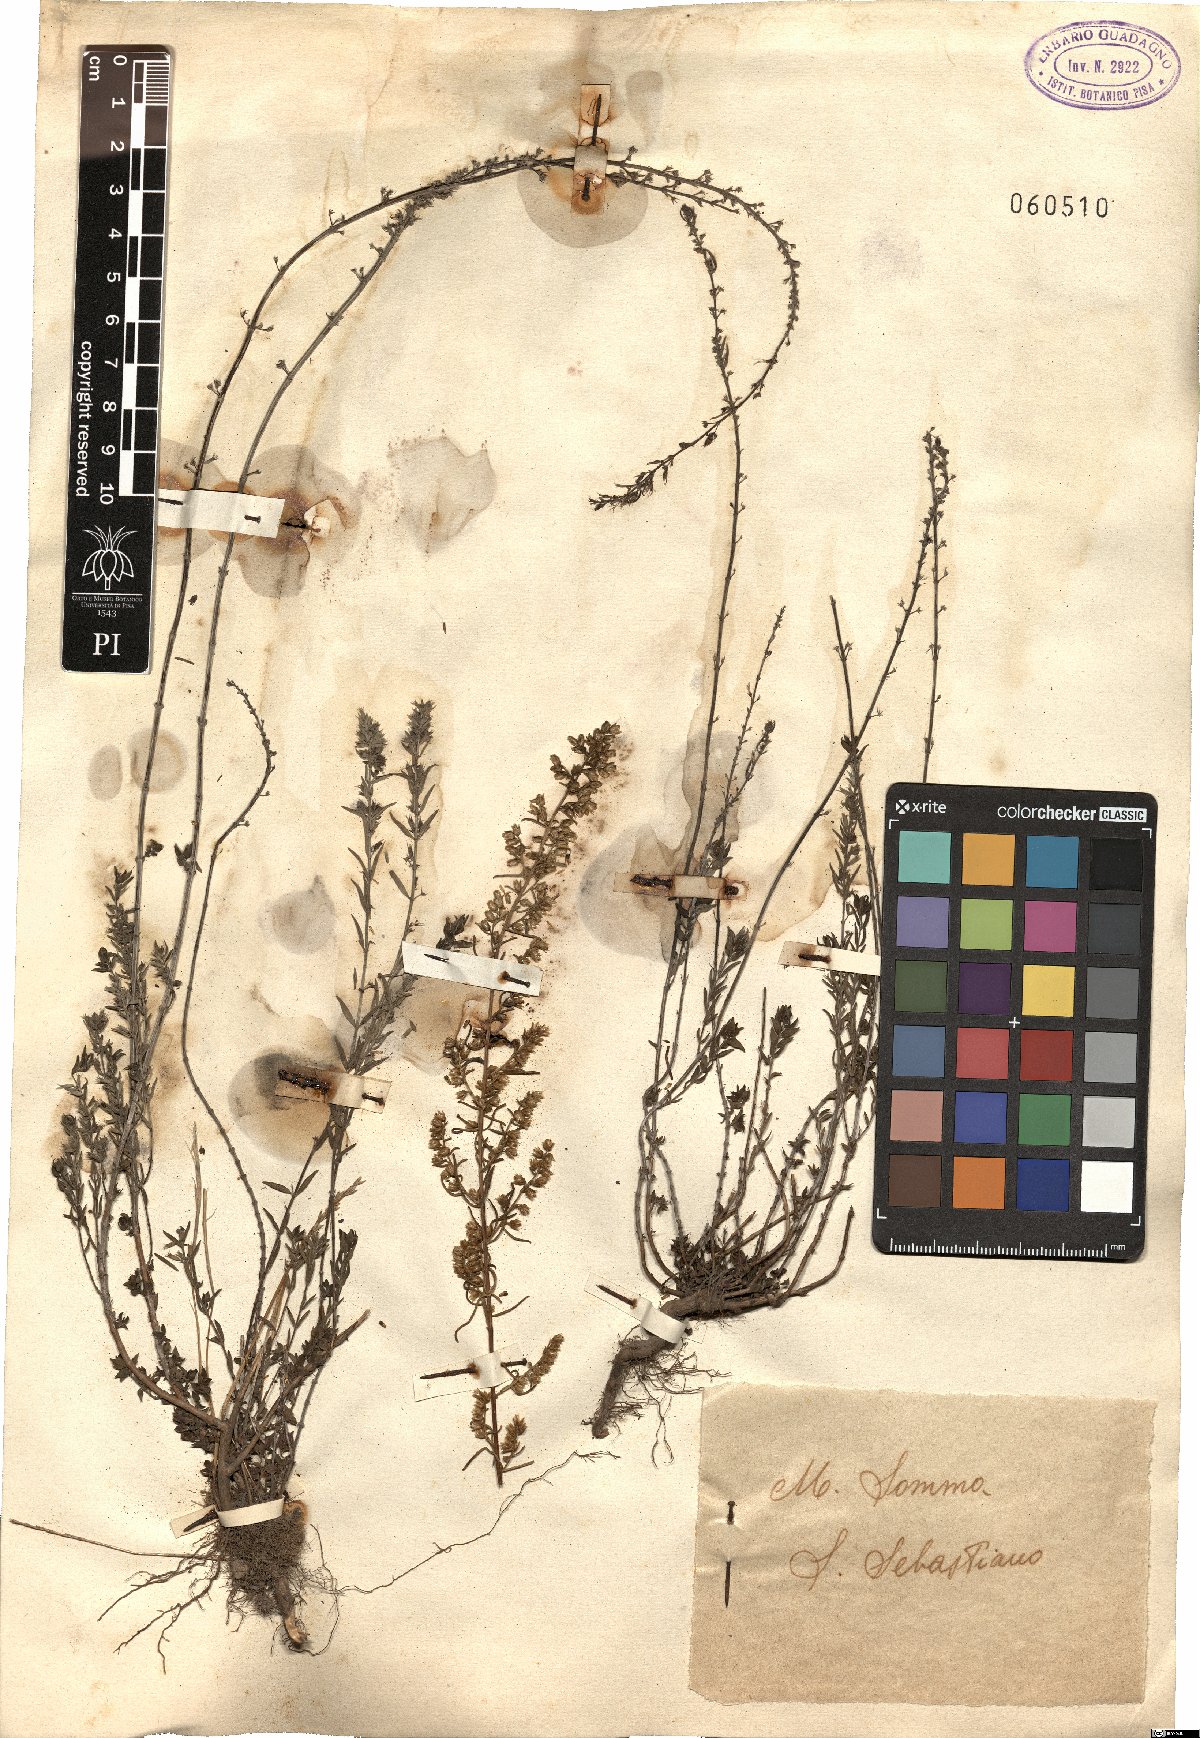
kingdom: Plantae
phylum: Tracheophyta
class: Magnoliopsida
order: Lamiales
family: Lamiaceae
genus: Satureja
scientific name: Satureja
